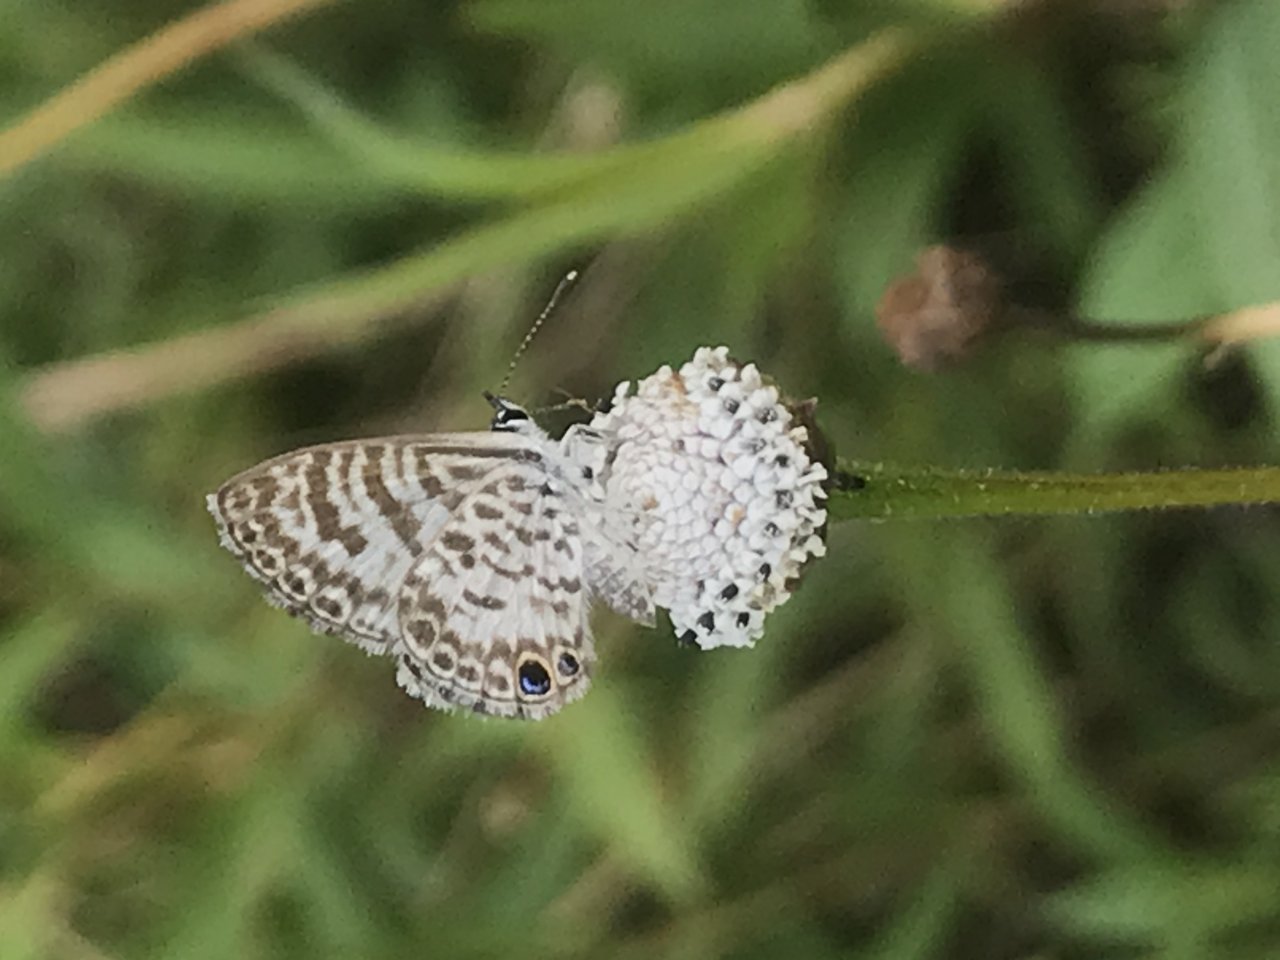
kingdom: Animalia
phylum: Arthropoda
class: Insecta
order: Lepidoptera
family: Lycaenidae
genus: Leptotes
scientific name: Leptotes cassius
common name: Cassius Blue
